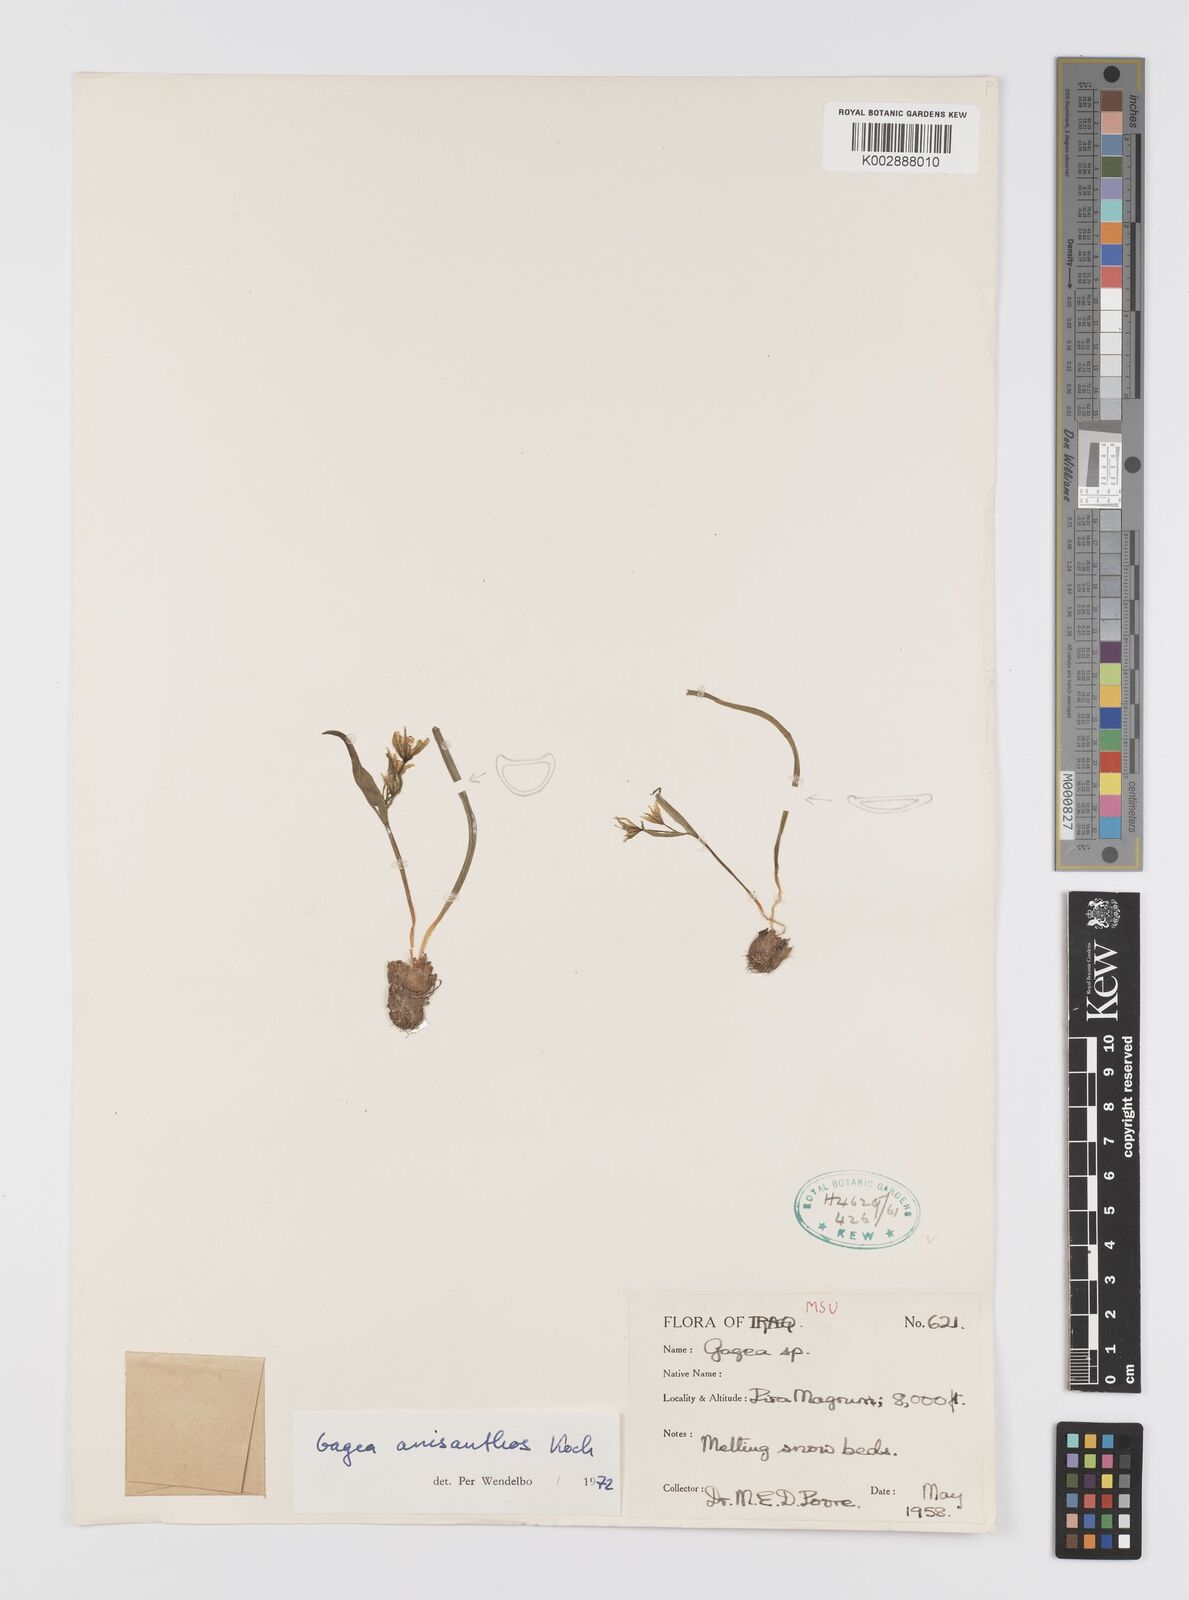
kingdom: Plantae
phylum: Tracheophyta
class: Liliopsida
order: Liliales
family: Liliaceae
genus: Gagea
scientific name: Gagea fragifera
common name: Lily
